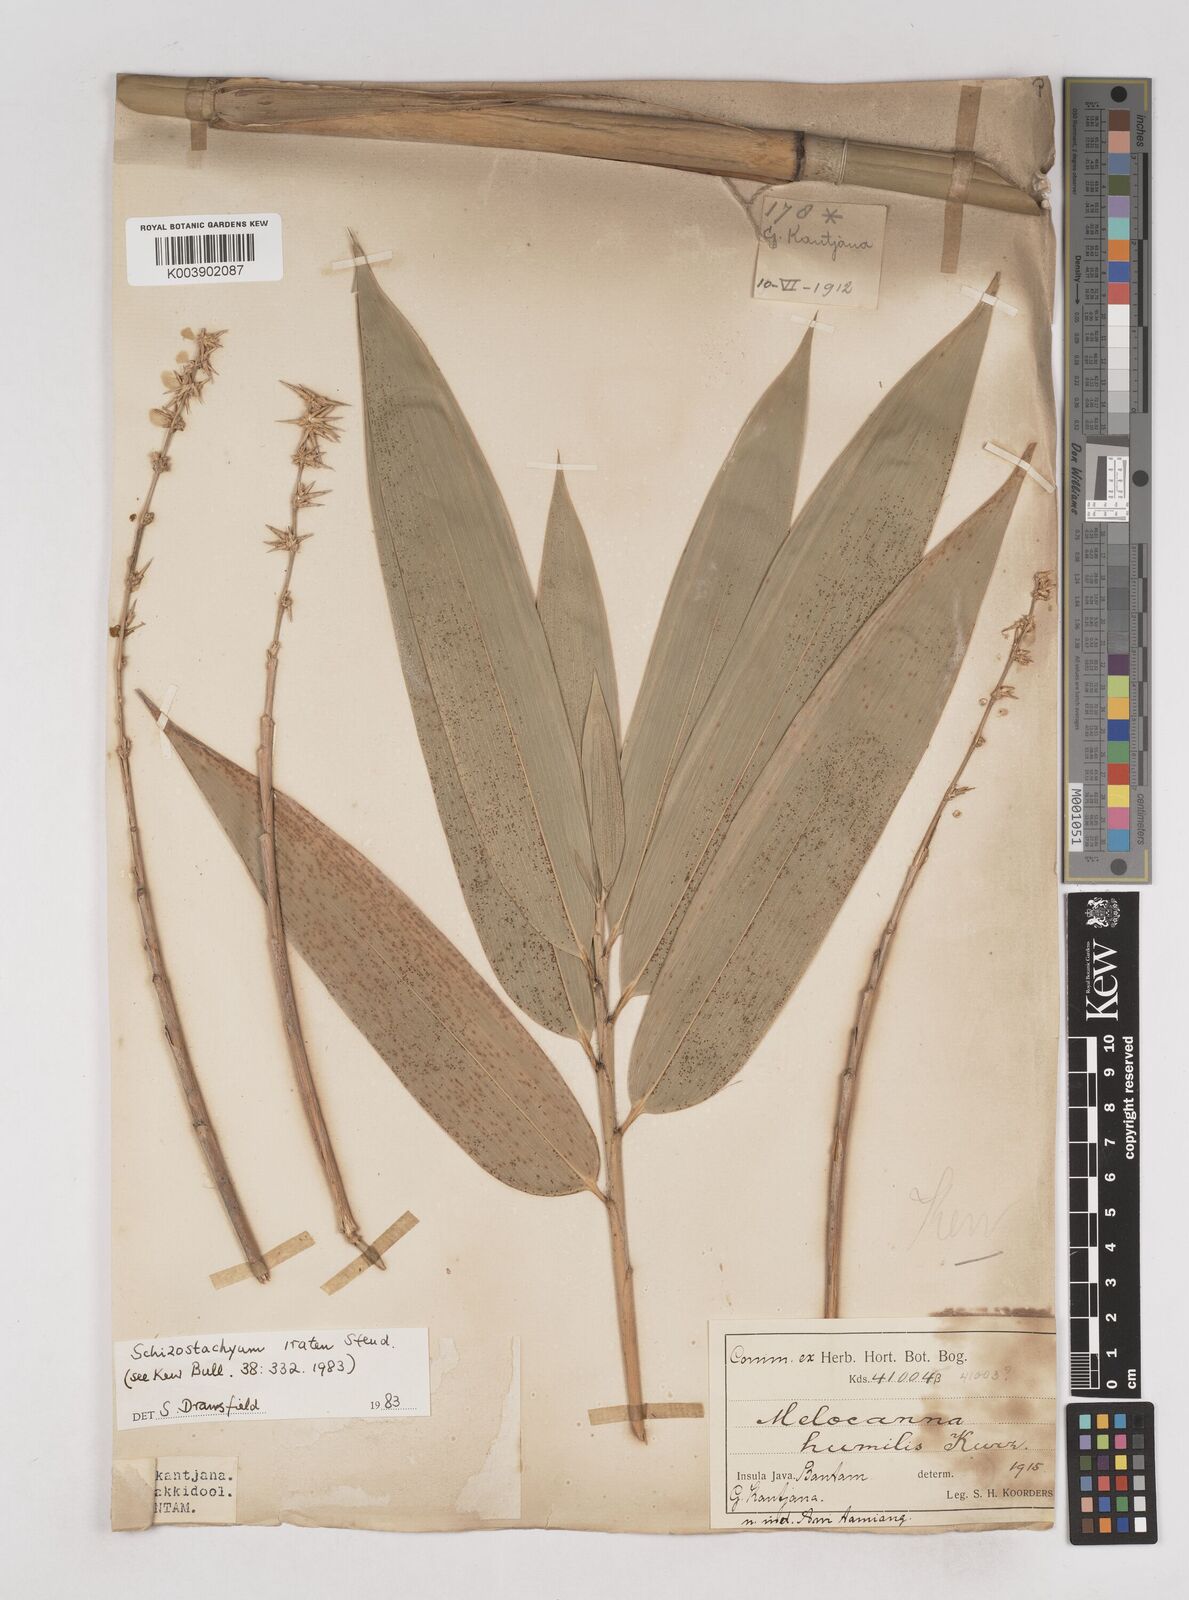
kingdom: Plantae
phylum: Tracheophyta
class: Liliopsida
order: Poales
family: Poaceae
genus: Schizostachyum
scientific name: Schizostachyum iraten
